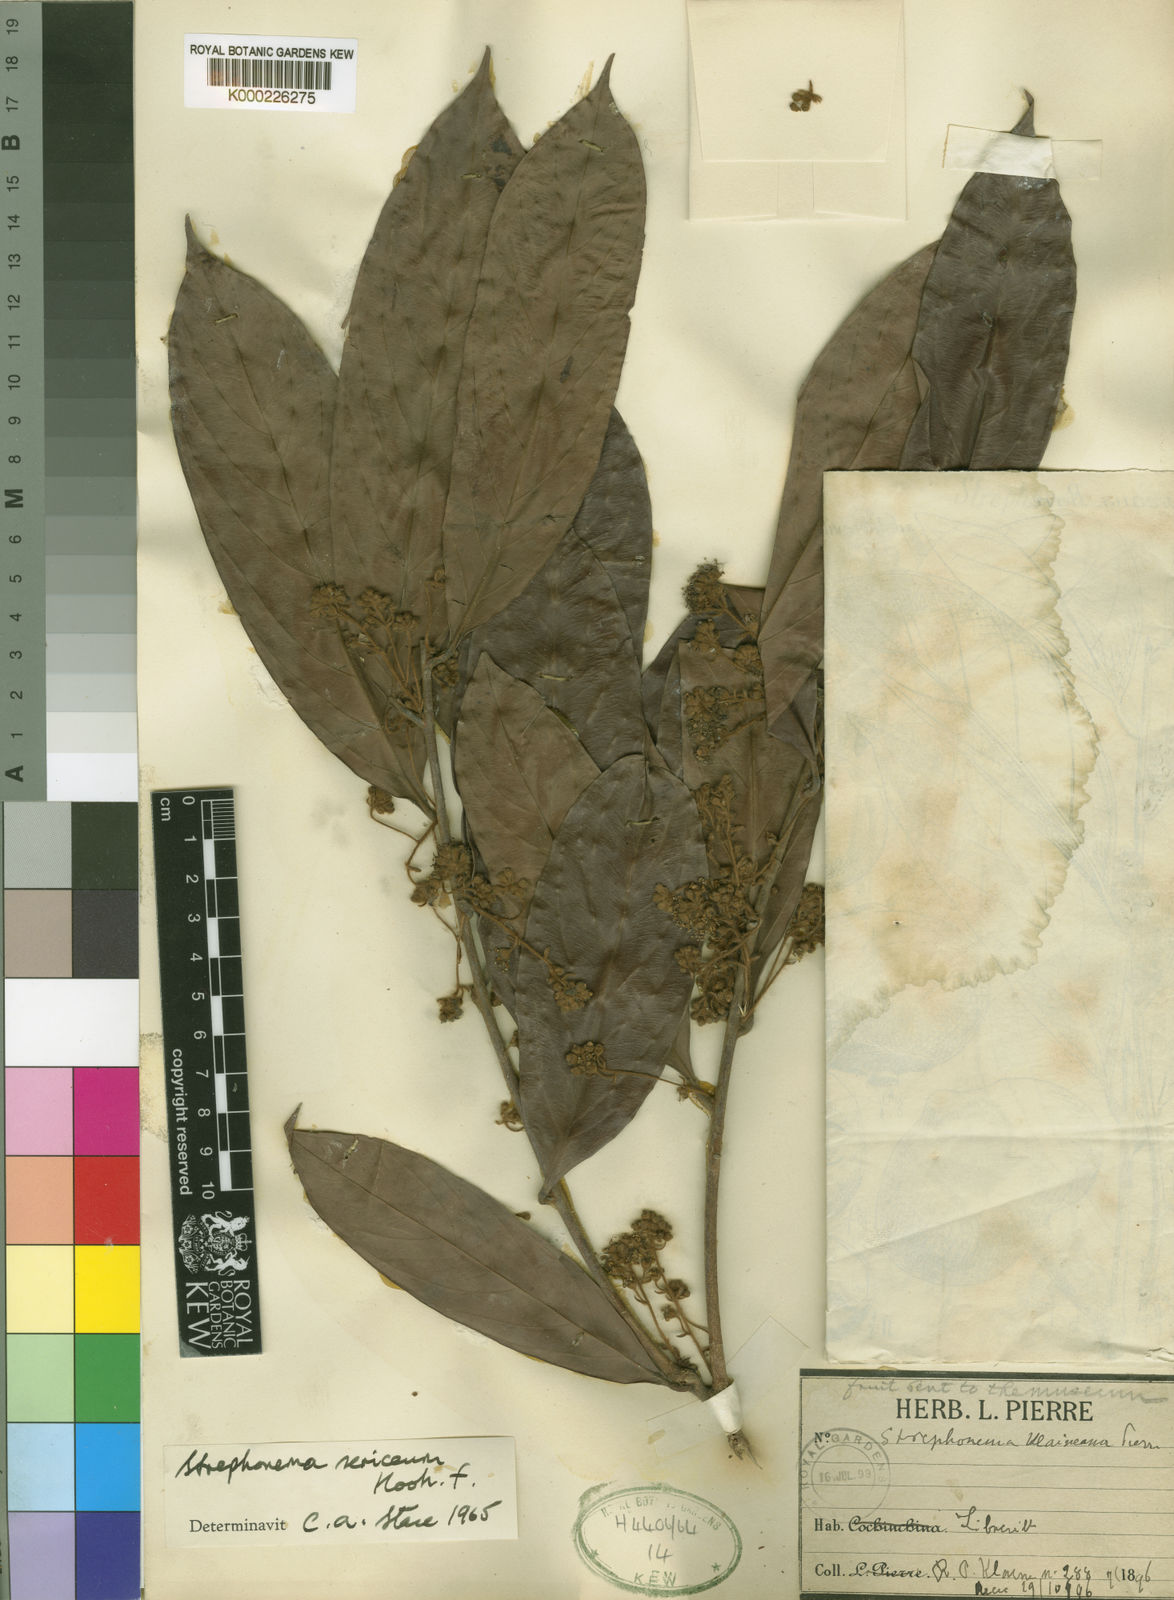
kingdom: Plantae
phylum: Tracheophyta
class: Magnoliopsida
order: Myrtales
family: Combretaceae
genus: Strephonema
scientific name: Strephonema sericeum
